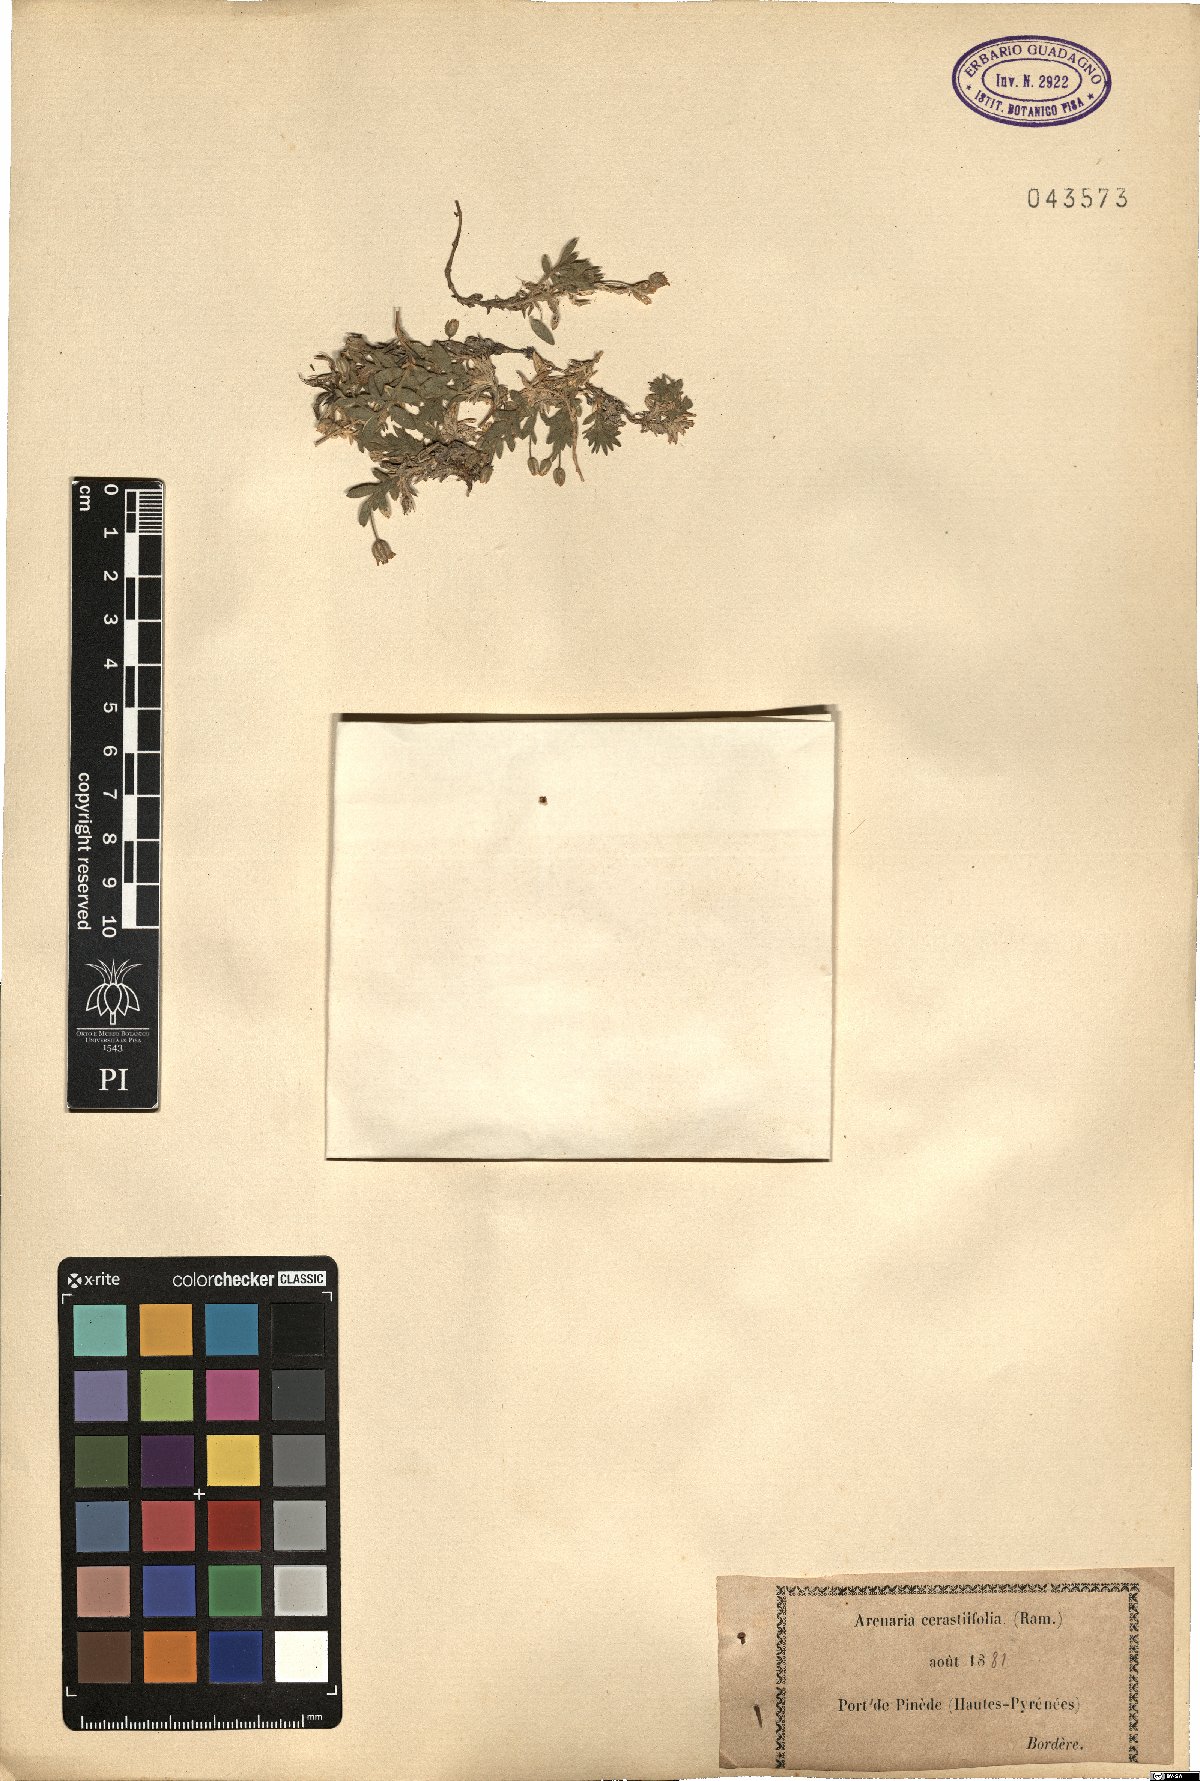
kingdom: Plantae
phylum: Tracheophyta
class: Magnoliopsida
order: Caryophyllales
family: Caryophyllaceae
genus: Facchinia
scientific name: Facchinia cerastiifolia
